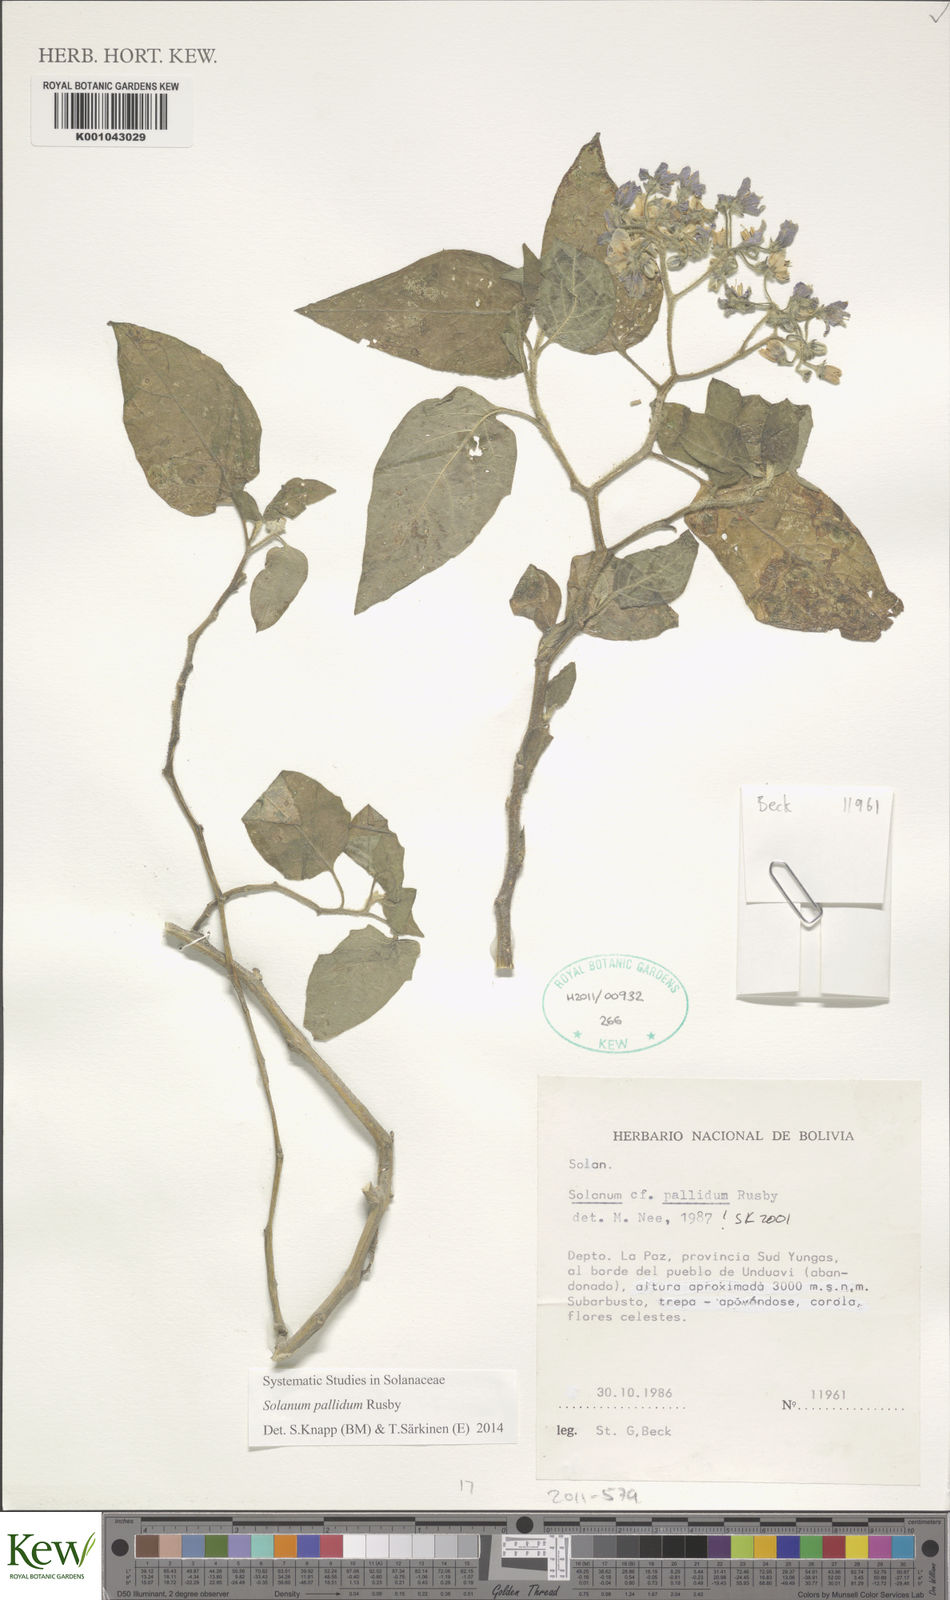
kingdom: Plantae
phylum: Tracheophyta
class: Magnoliopsida
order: Solanales
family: Solanaceae
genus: Solanum
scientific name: Solanum pallidum
